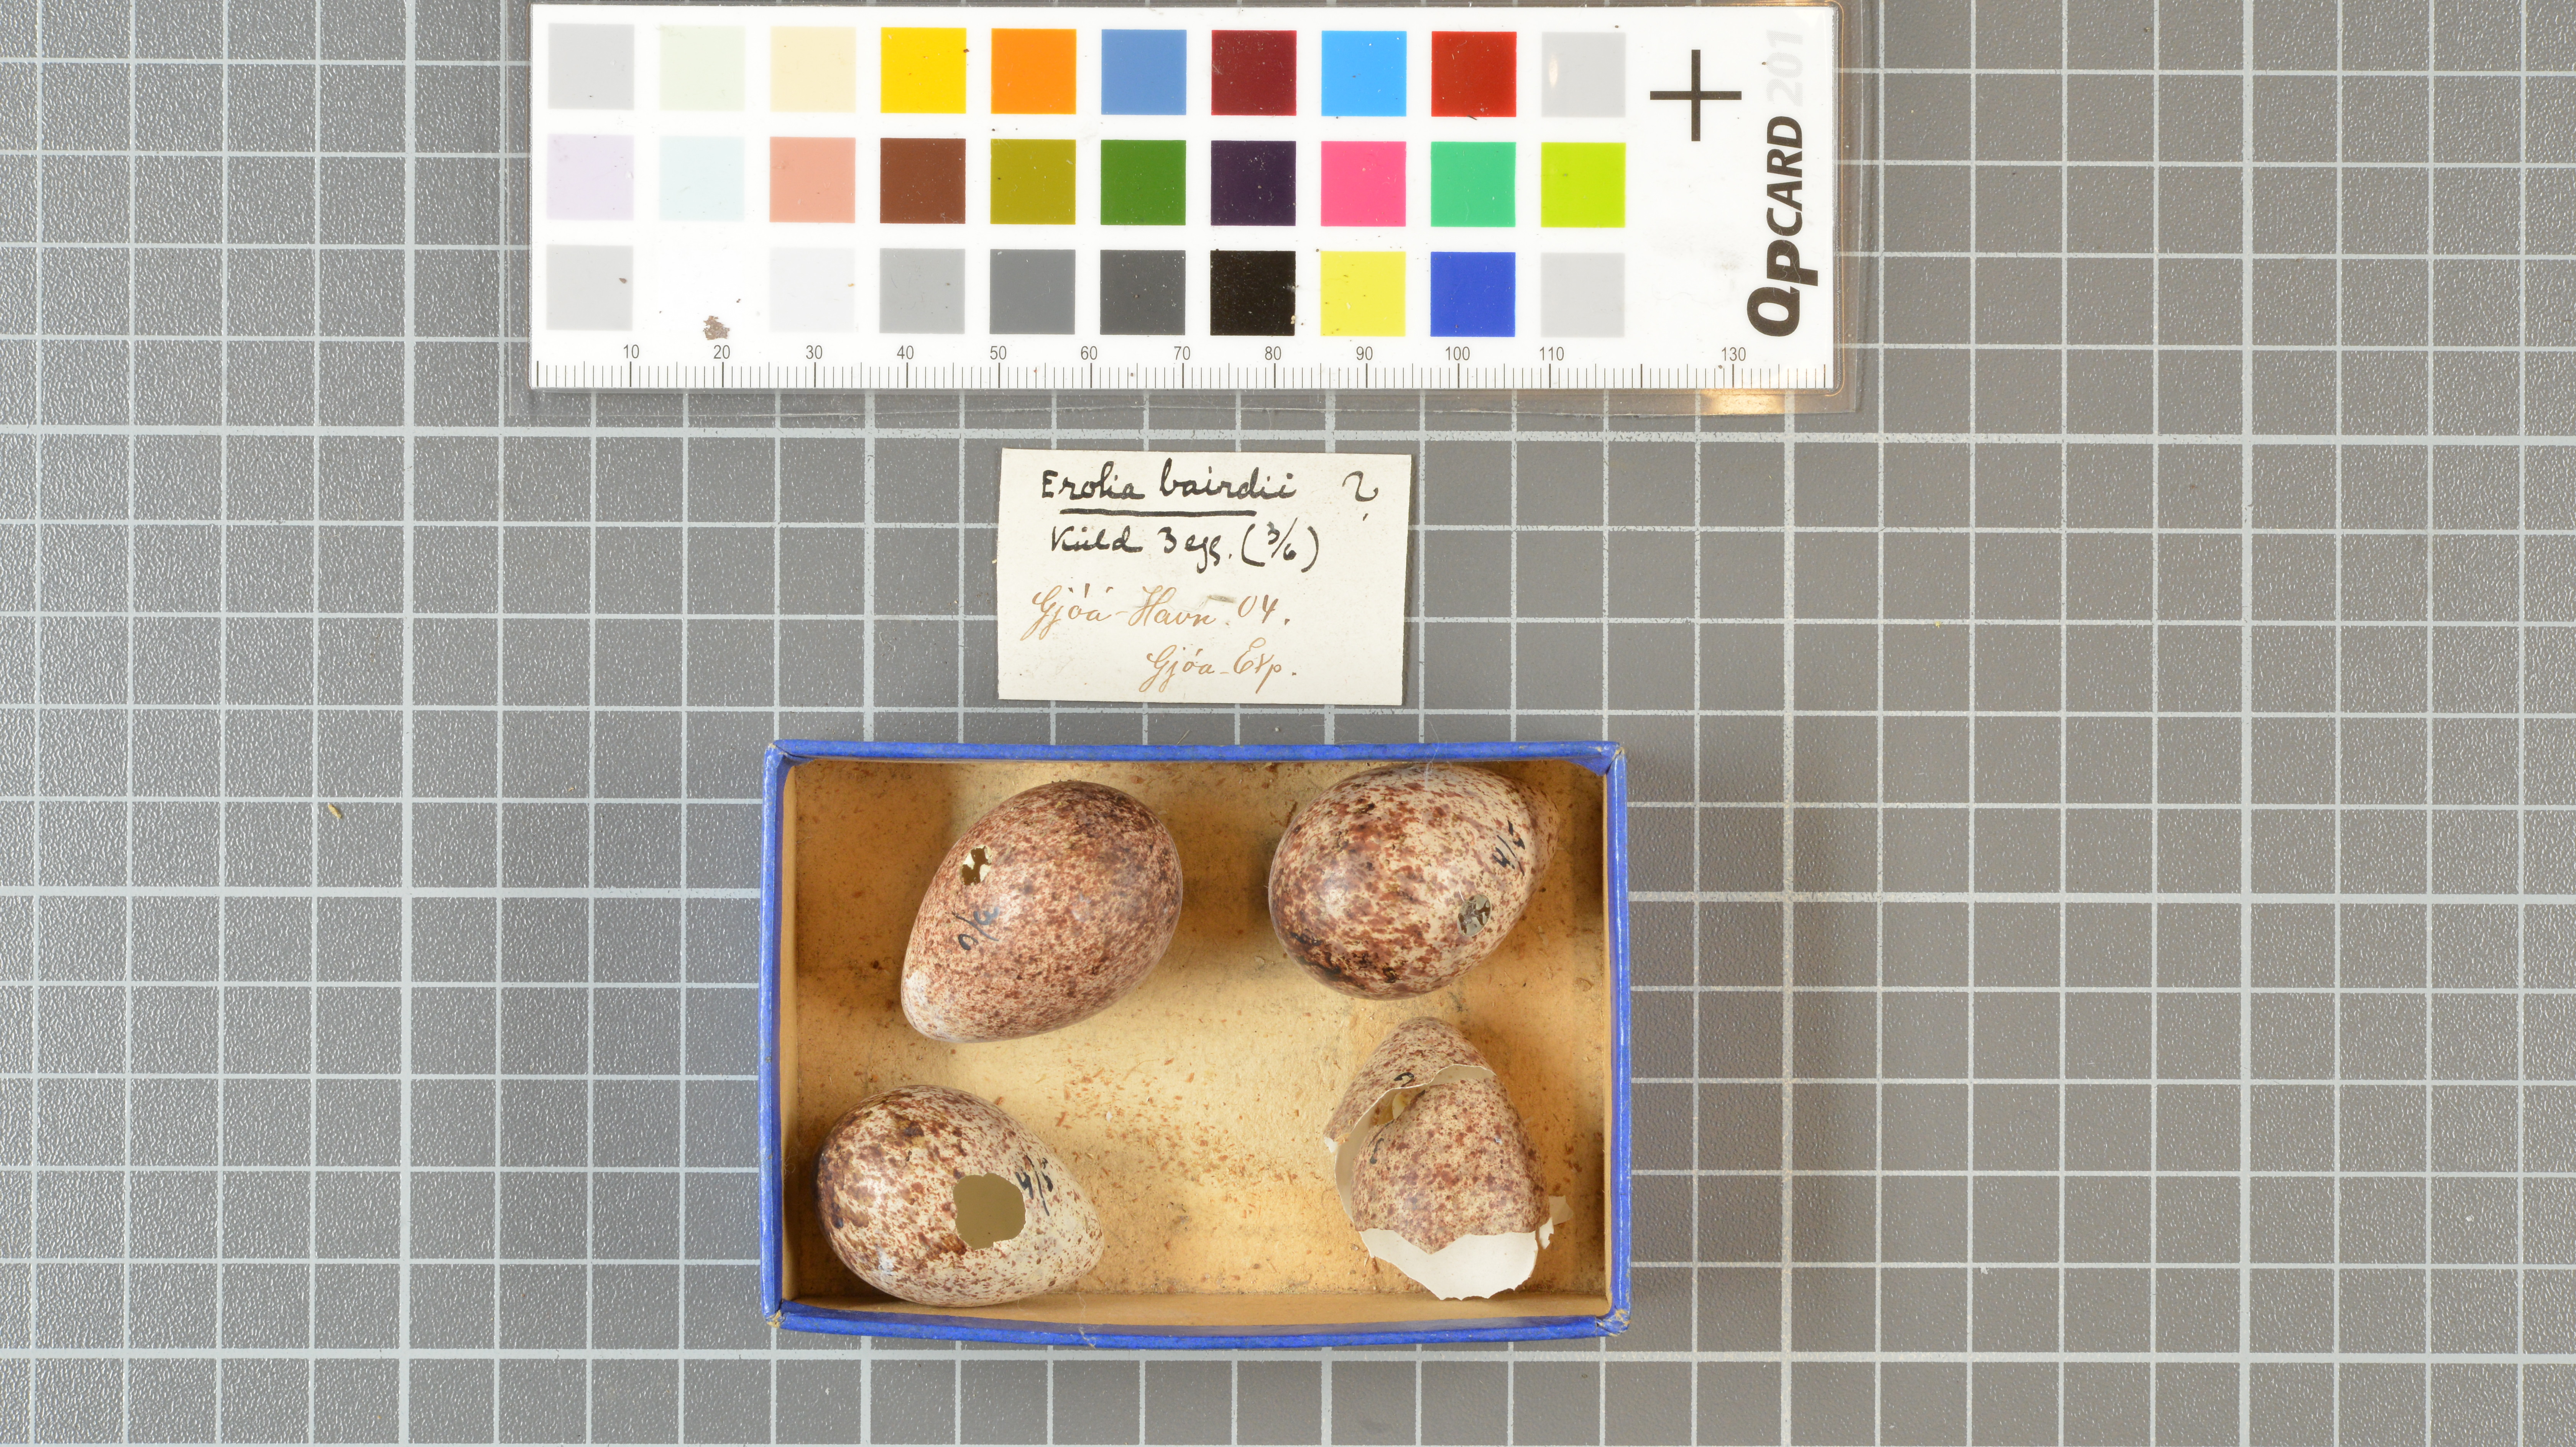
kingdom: Animalia
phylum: Chordata
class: Aves
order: Charadriiformes
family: Scolopacidae
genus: Calidris
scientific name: Calidris bairdii
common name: Baird's sandpiper
